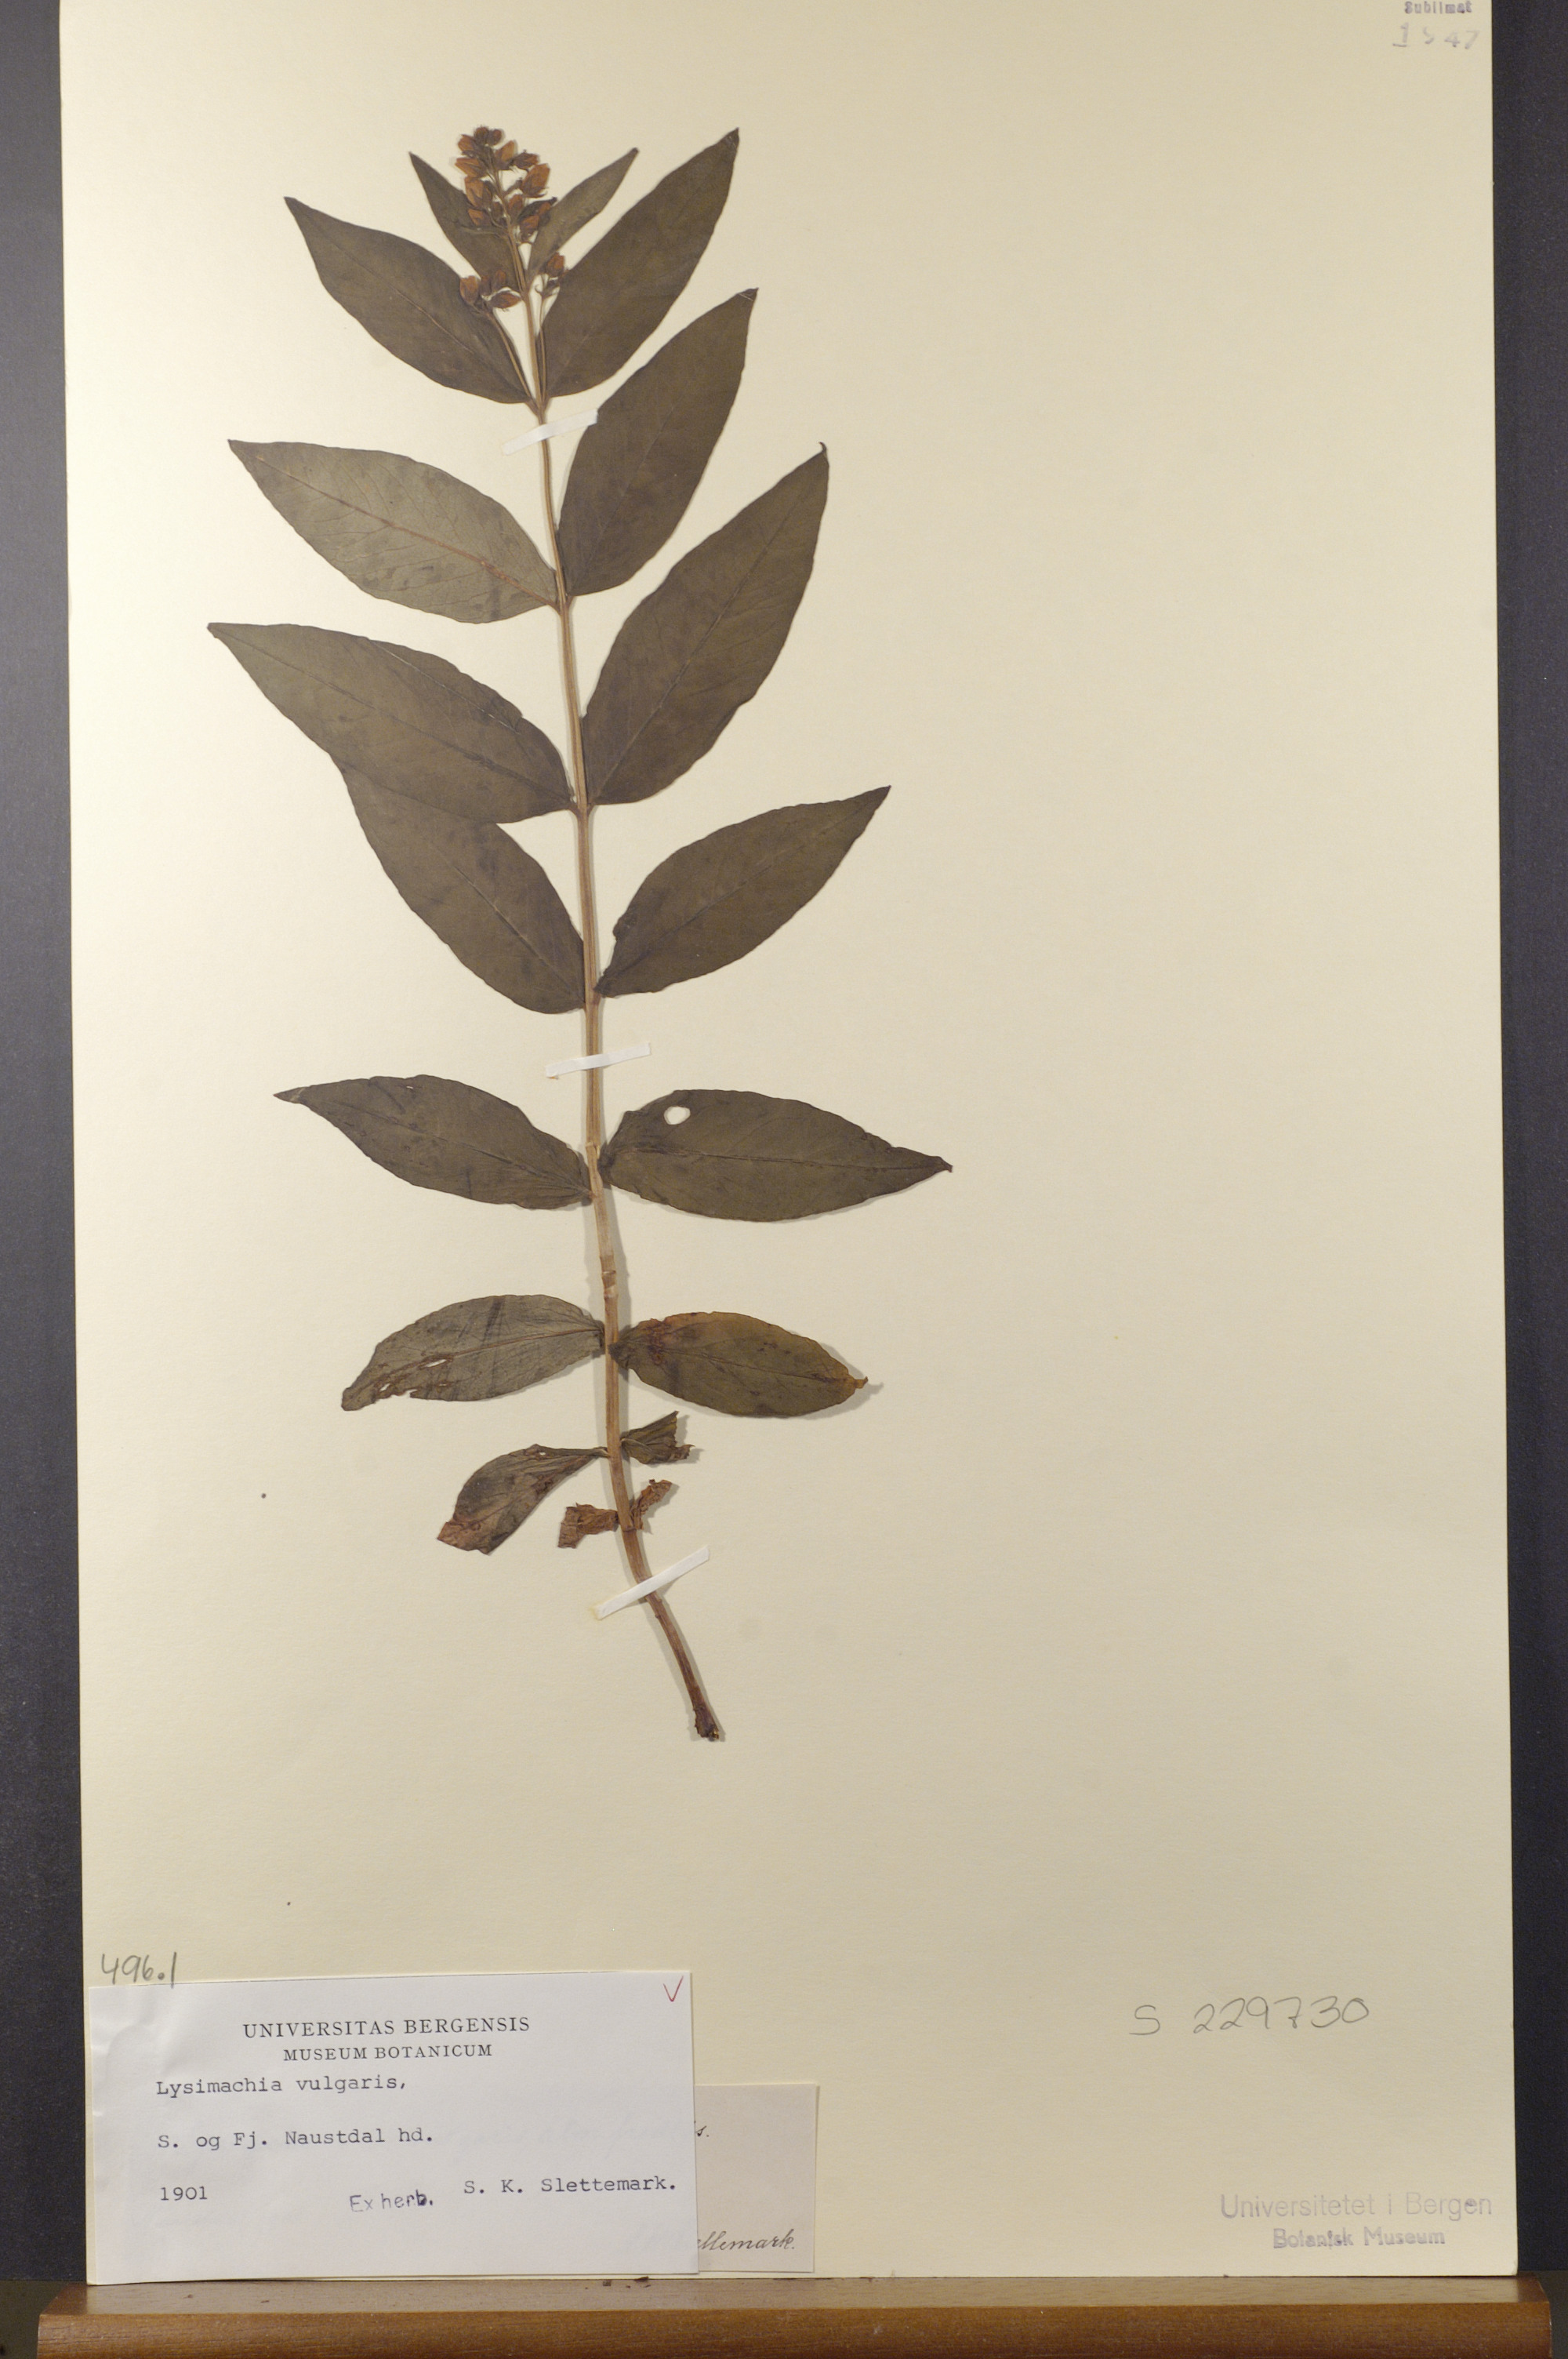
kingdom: Plantae
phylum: Tracheophyta
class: Magnoliopsida
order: Ericales
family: Primulaceae
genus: Lysimachia
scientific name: Lysimachia vulgaris
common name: Yellow loosestrife
